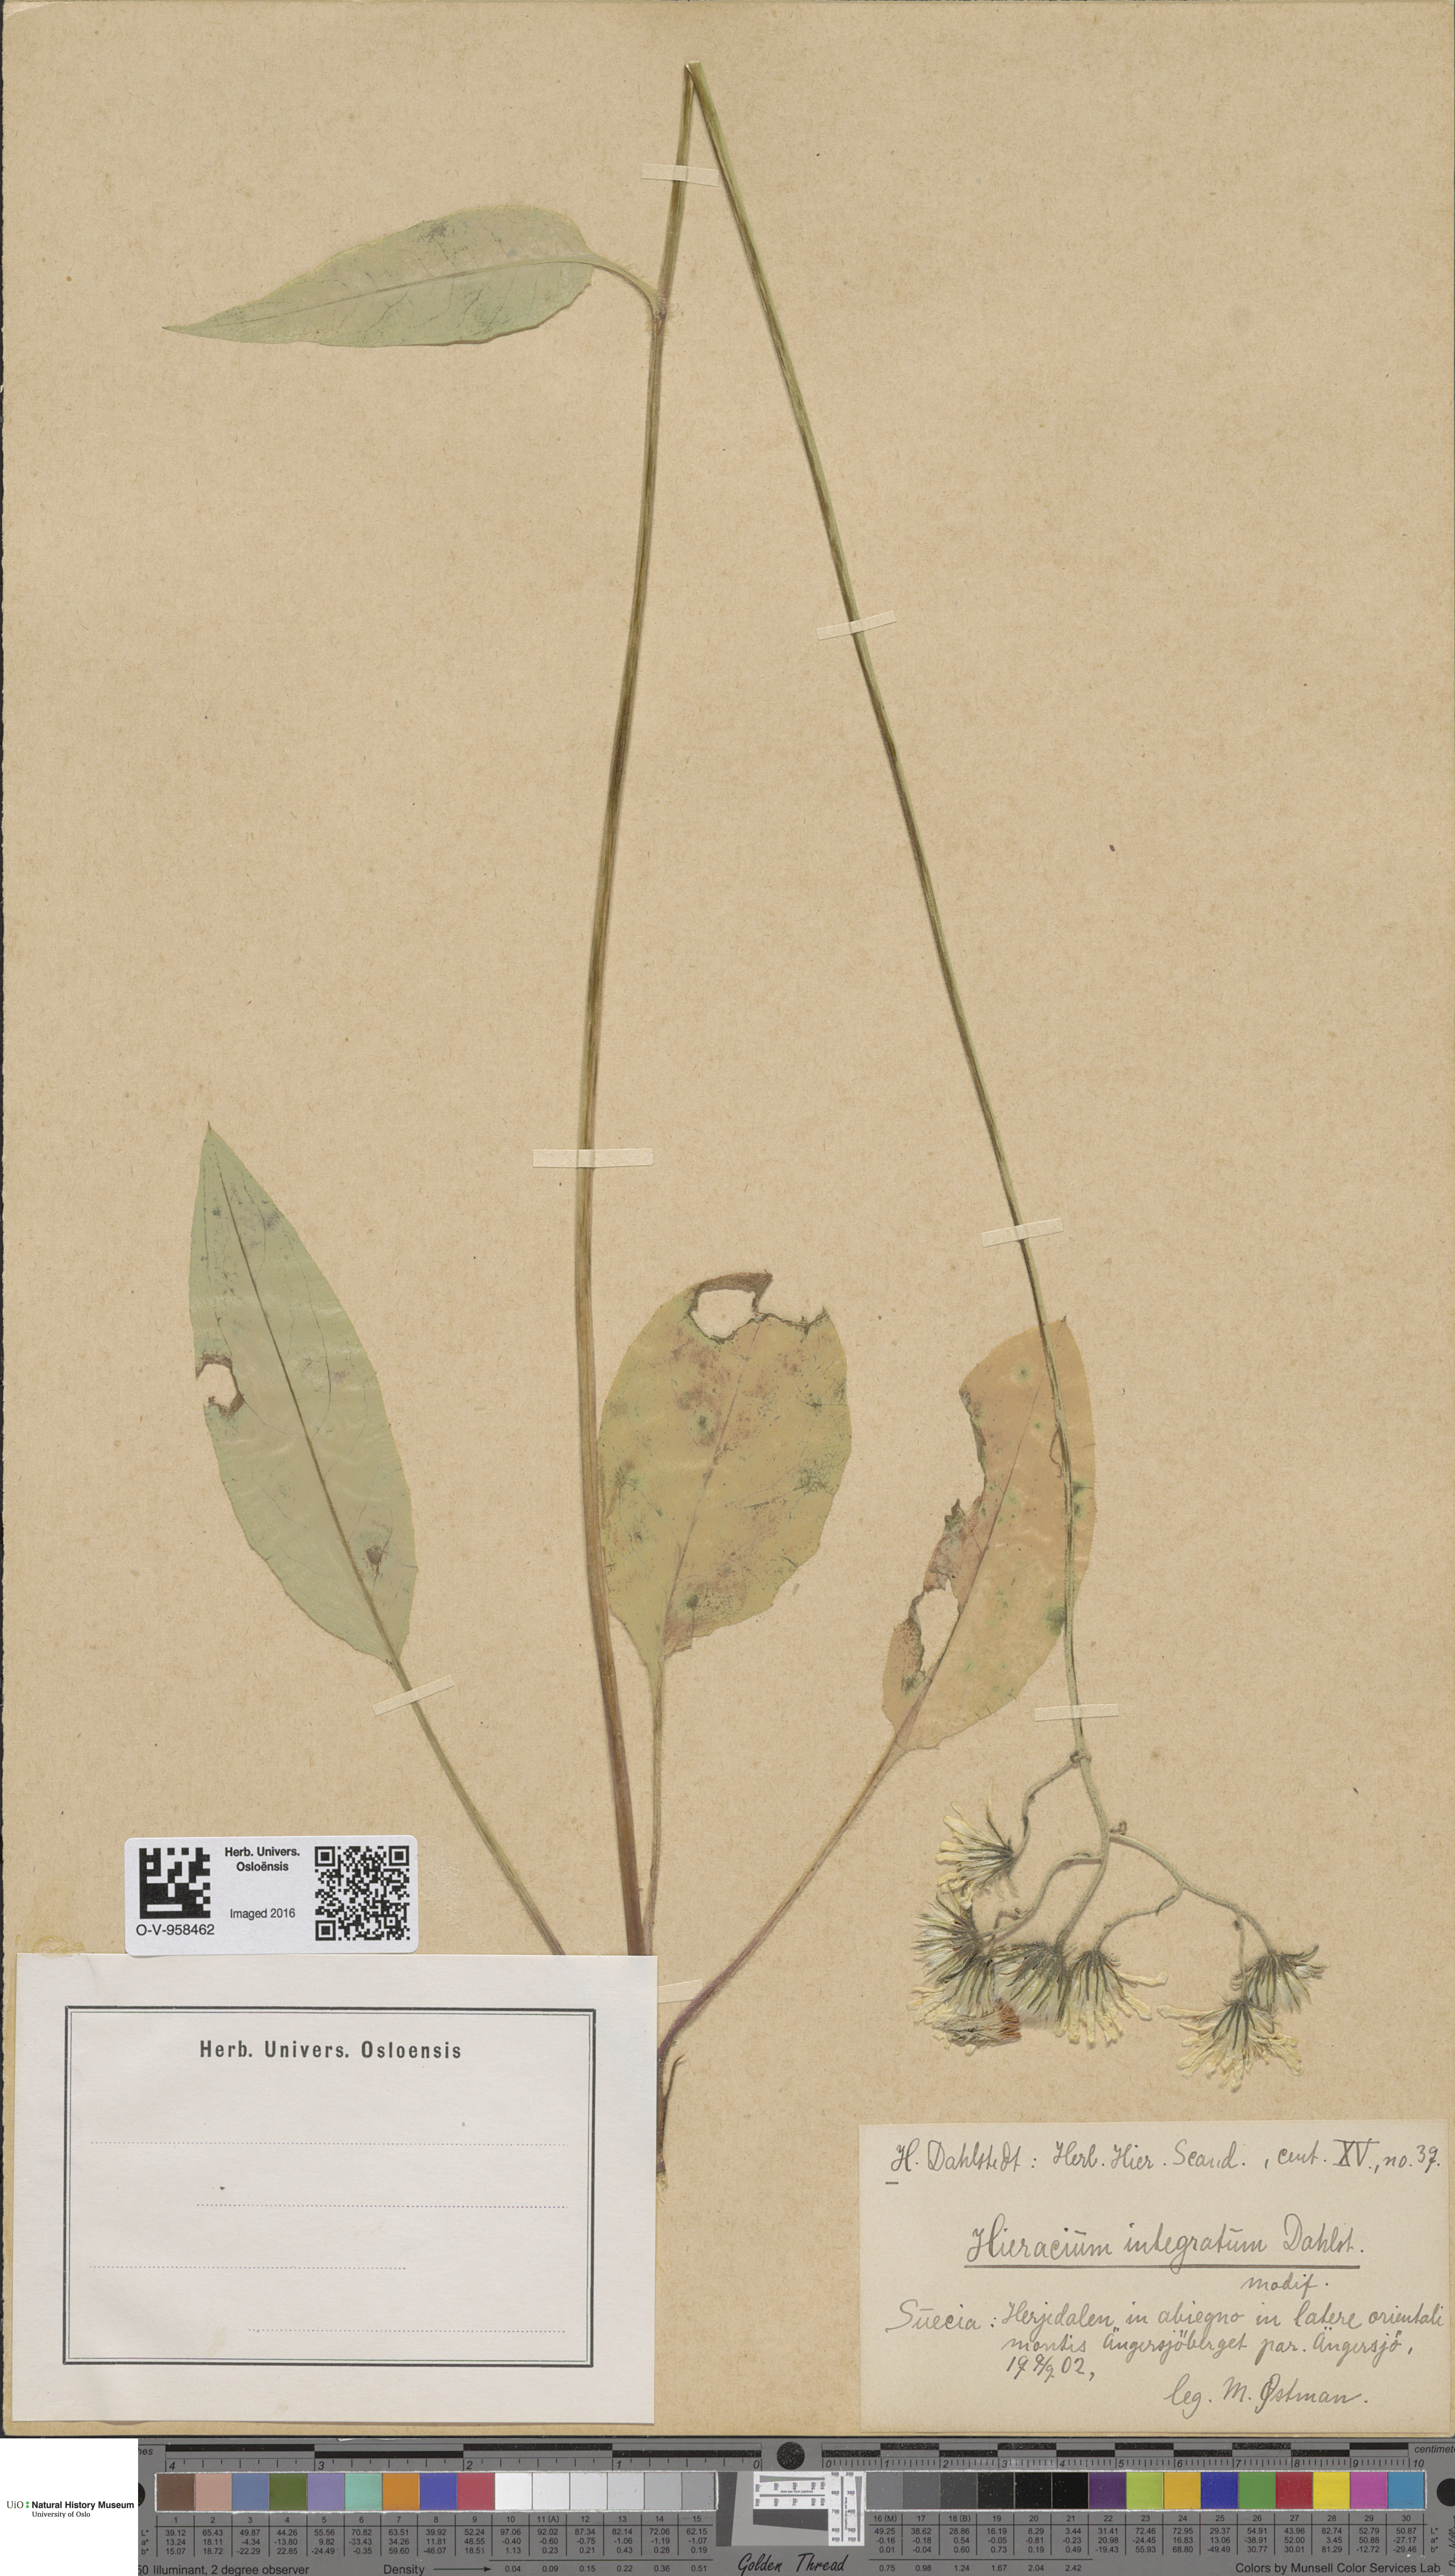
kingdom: Plantae
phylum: Tracheophyta
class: Magnoliopsida
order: Asterales
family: Asteraceae
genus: Hieracium
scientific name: Hieracium murorum
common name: Wall hawkweed
